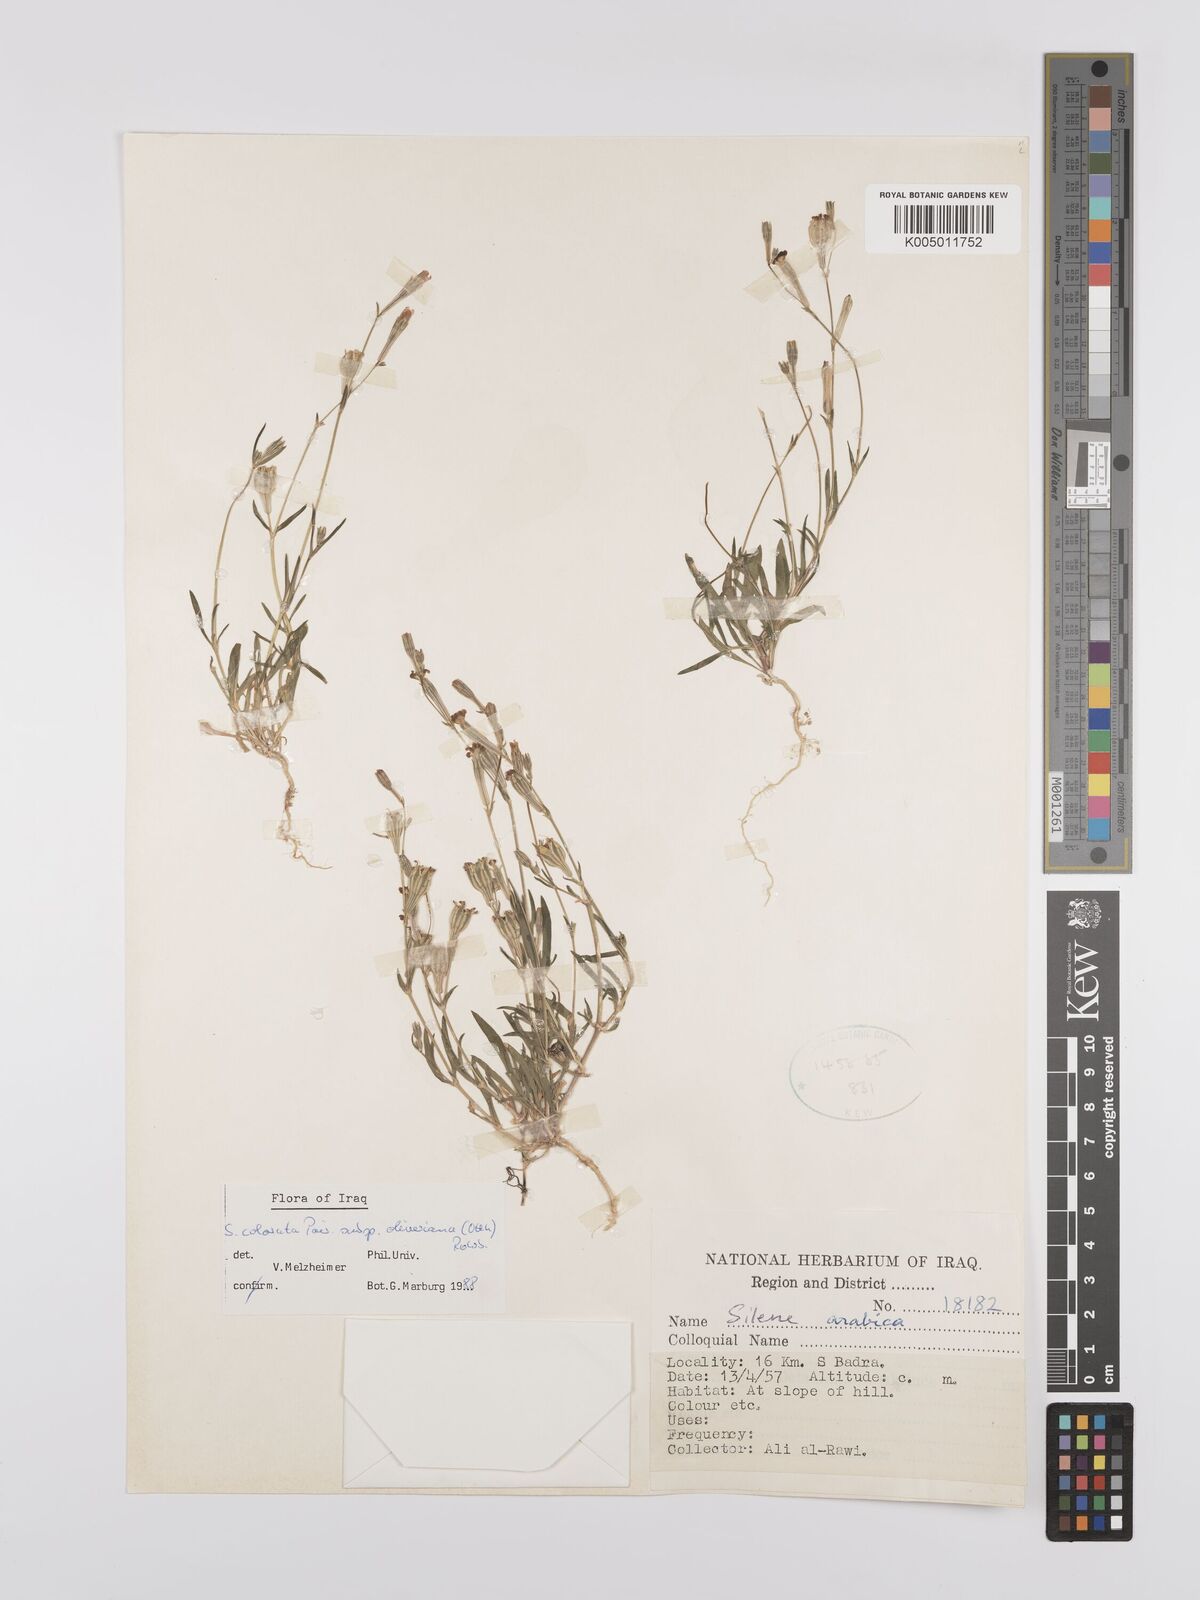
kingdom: Plantae
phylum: Tracheophyta
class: Magnoliopsida
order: Caryophyllales
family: Caryophyllaceae
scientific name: Caryophyllaceae
